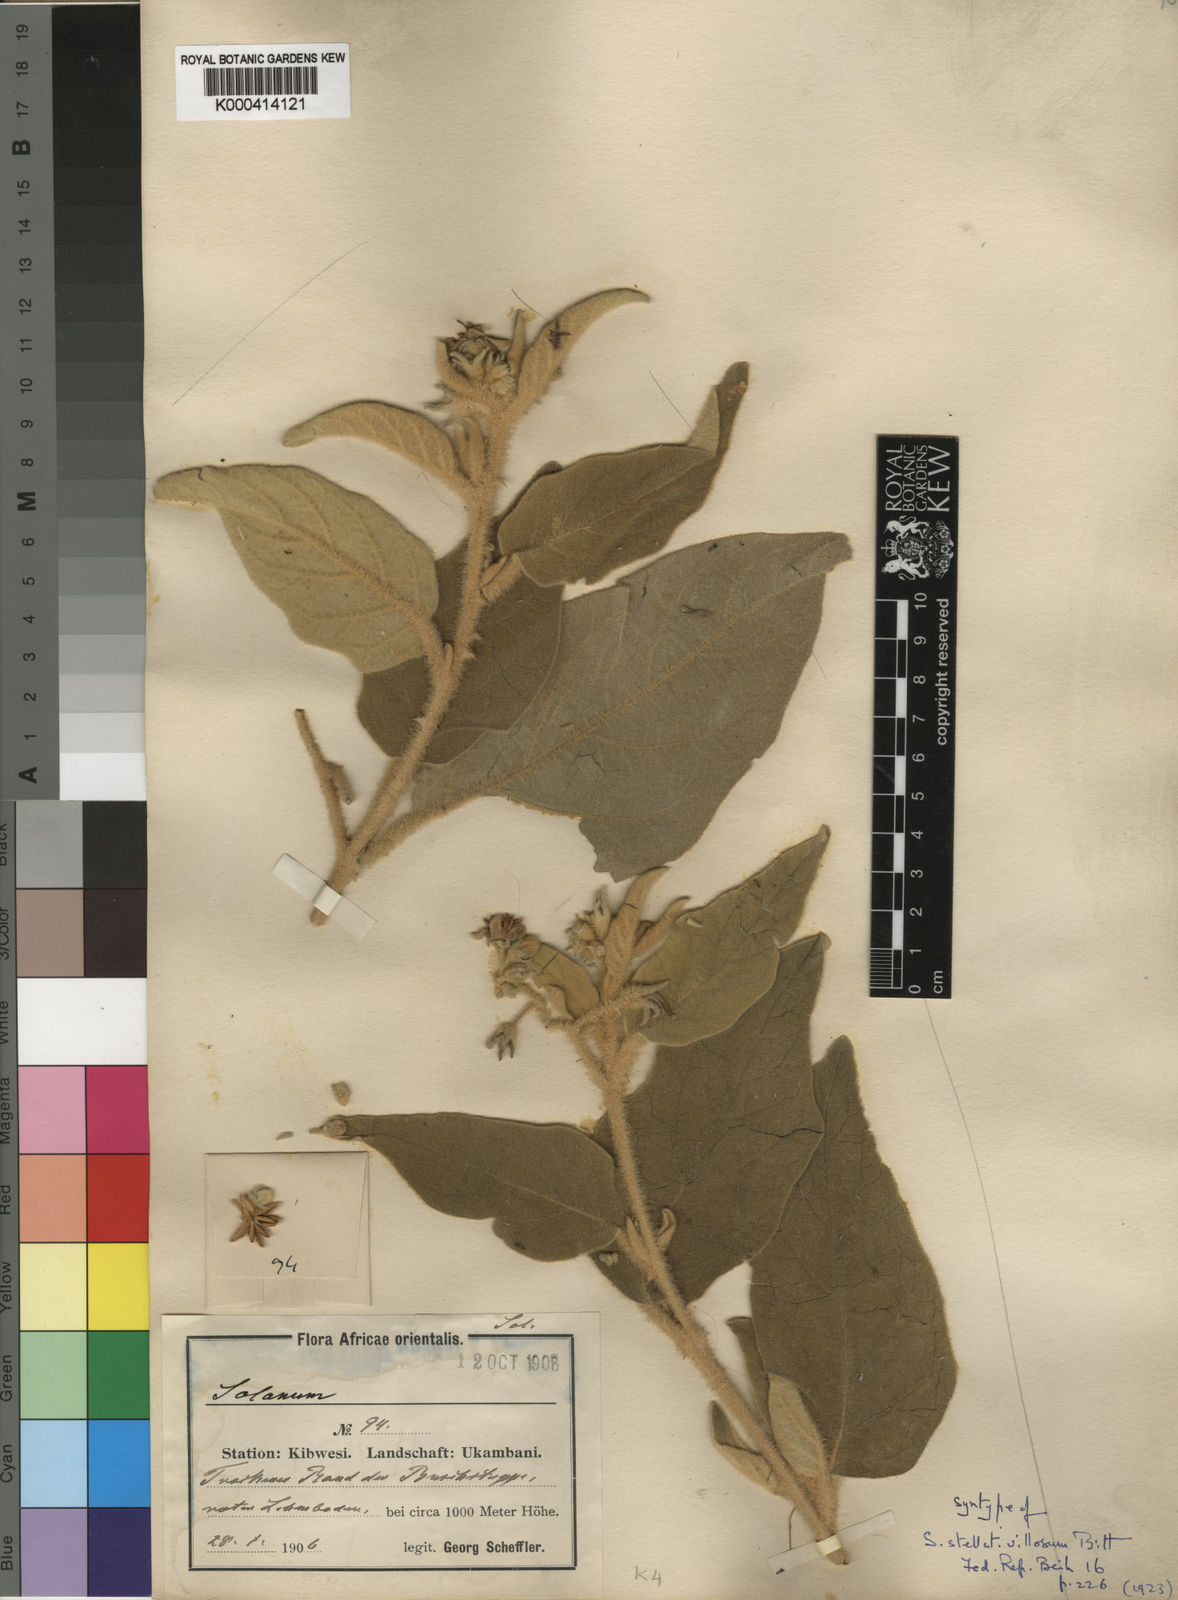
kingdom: Plantae
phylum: Tracheophyta
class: Magnoliopsida
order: Solanales
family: Solanaceae
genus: Solanum
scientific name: Solanum incanum
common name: Bitter apple
